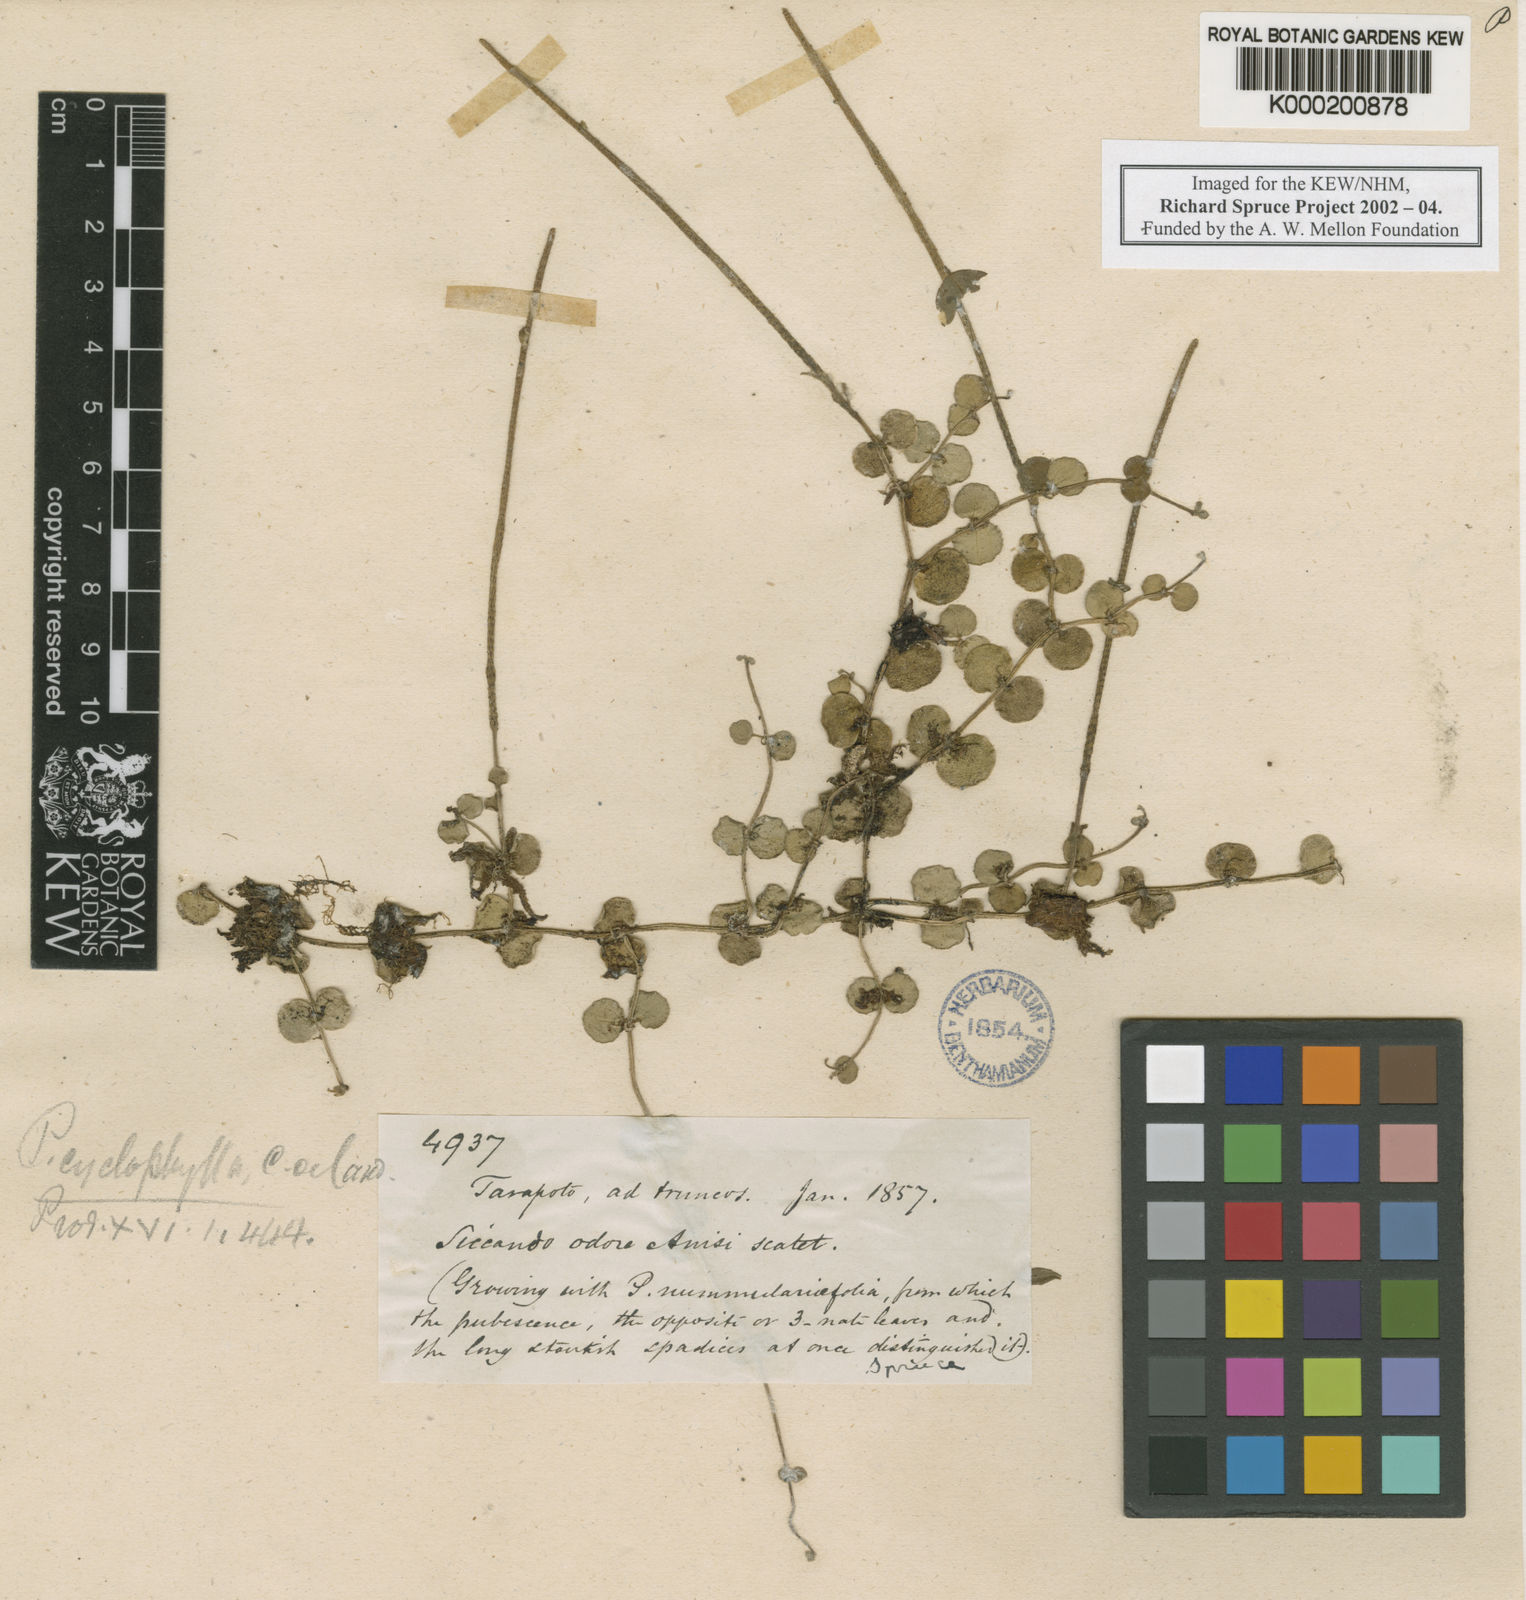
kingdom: Plantae
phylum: Tracheophyta
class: Magnoliopsida
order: Piperales
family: Piperaceae
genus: Peperomia
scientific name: Peperomia cyclophylla
